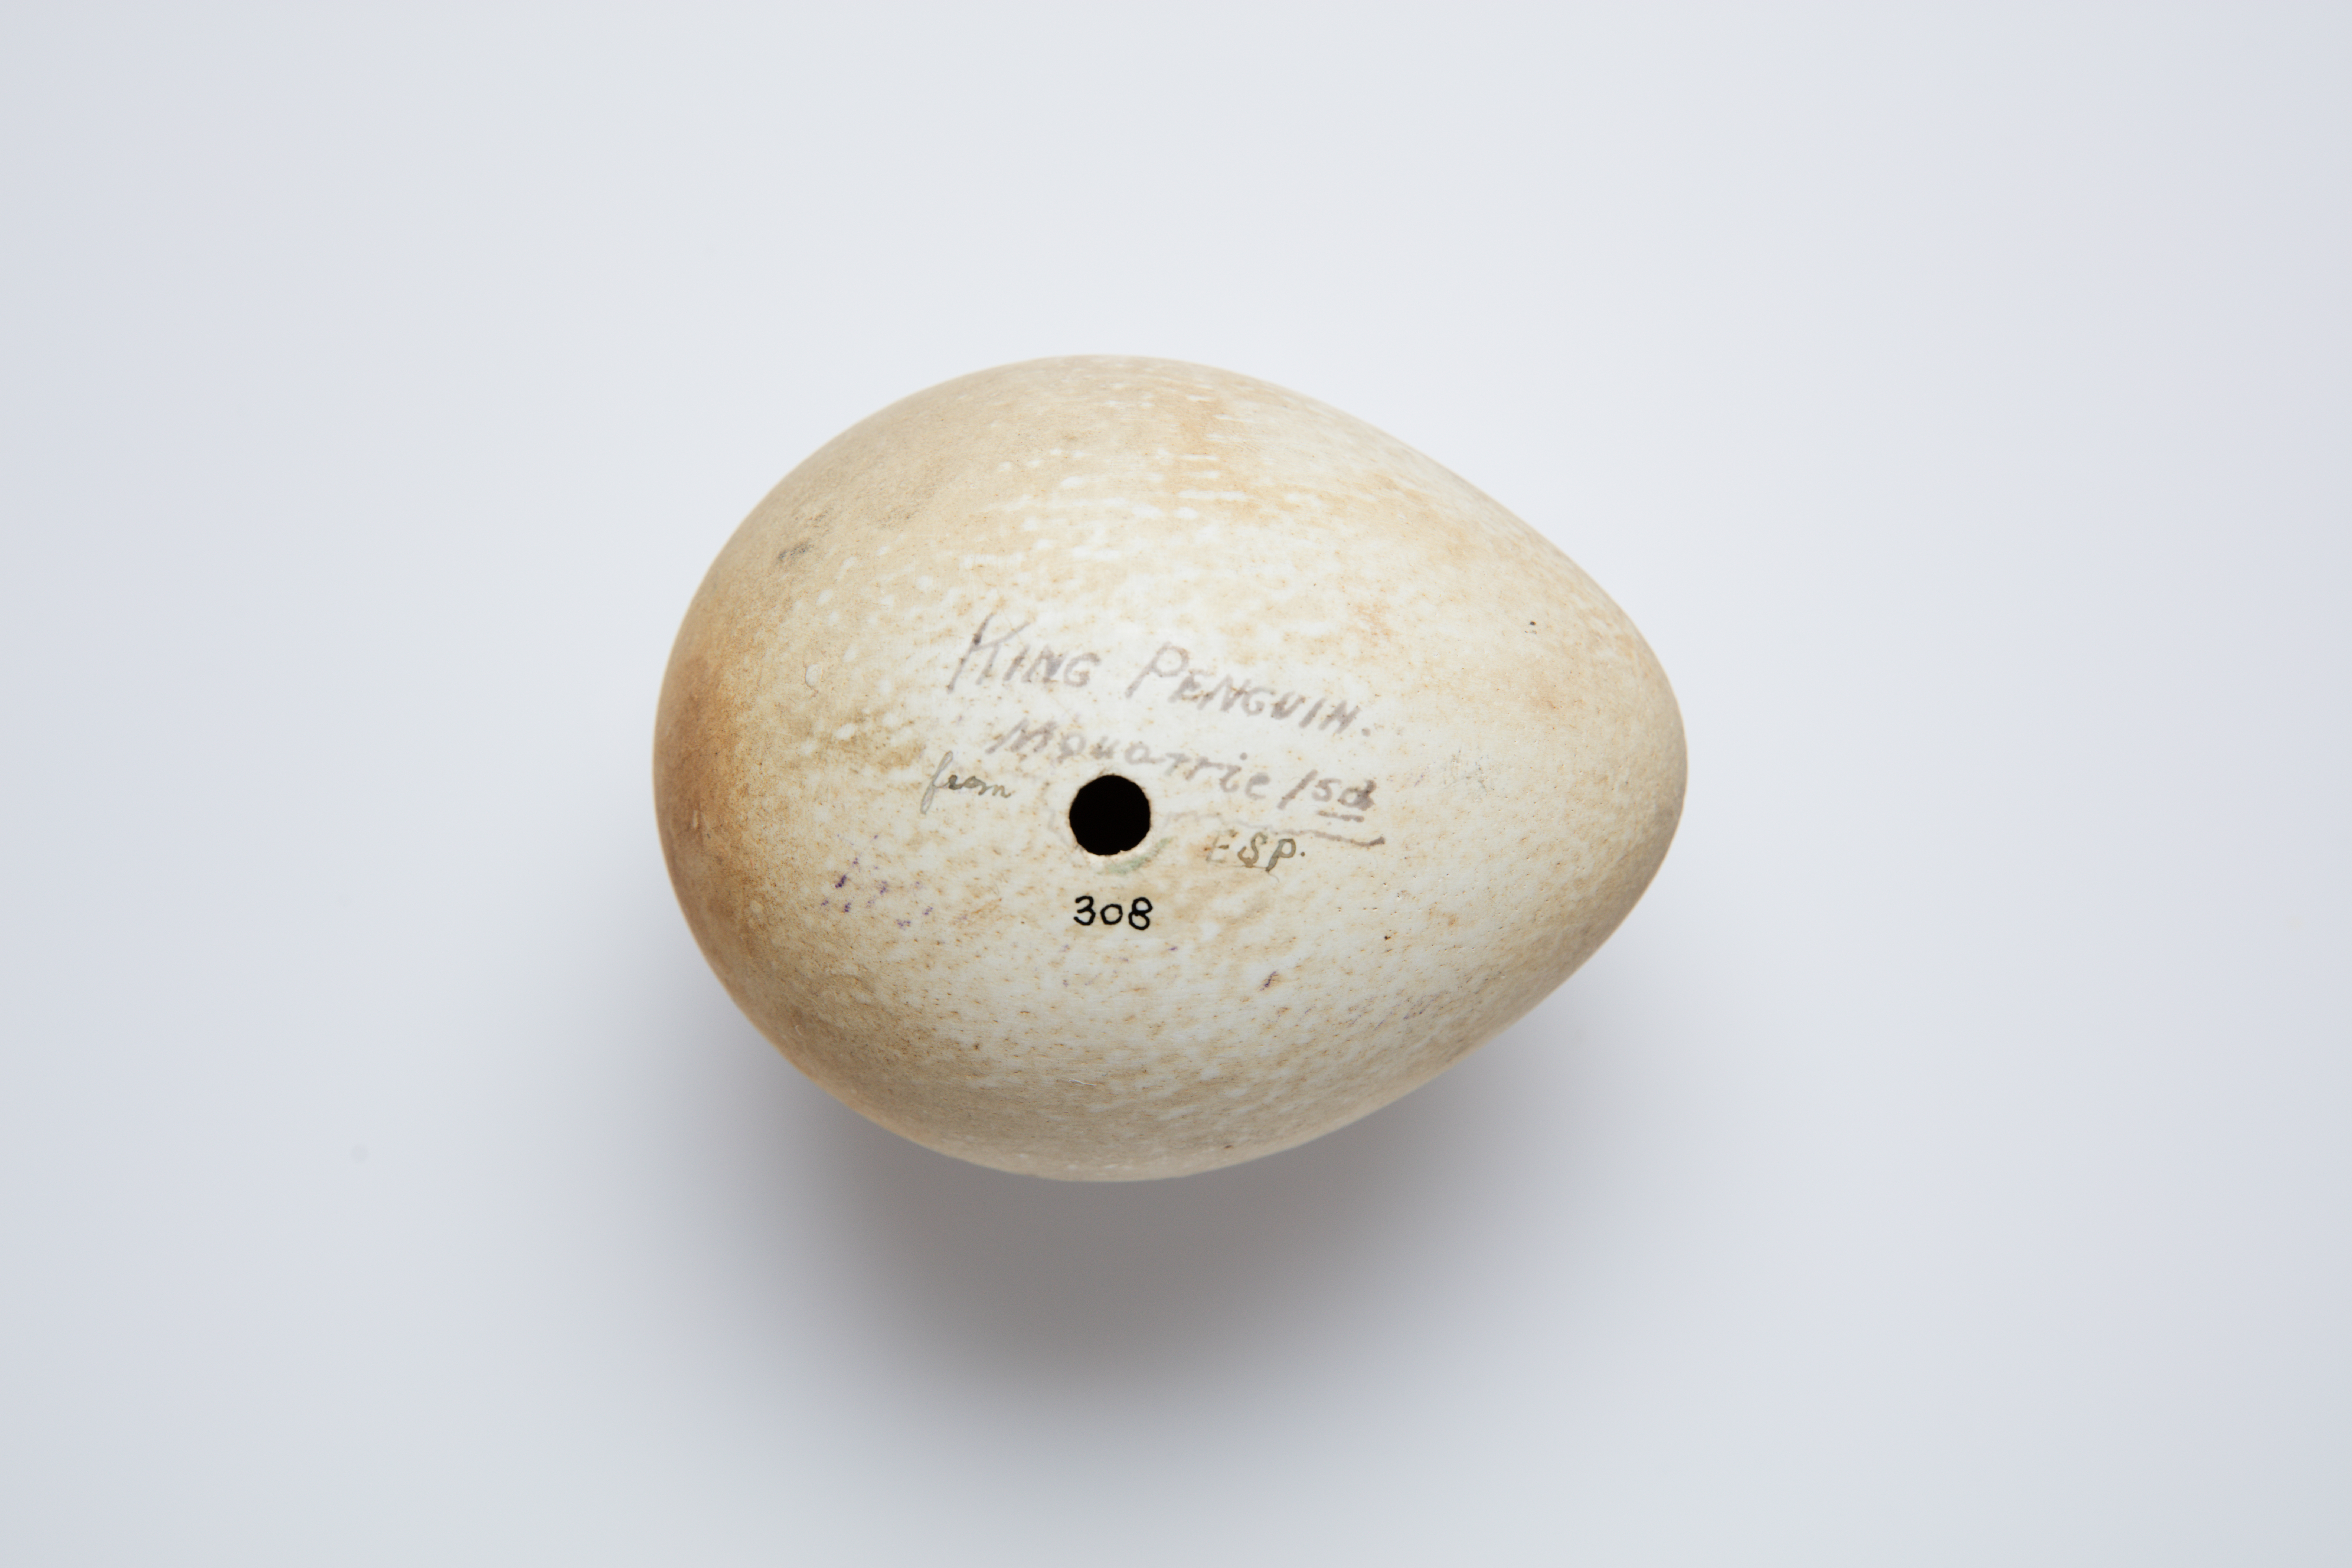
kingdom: Animalia
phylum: Chordata
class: Aves
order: Sphenisciformes
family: Spheniscidae
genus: Aptenodytes
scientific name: Aptenodytes patagonicus
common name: King penguin
